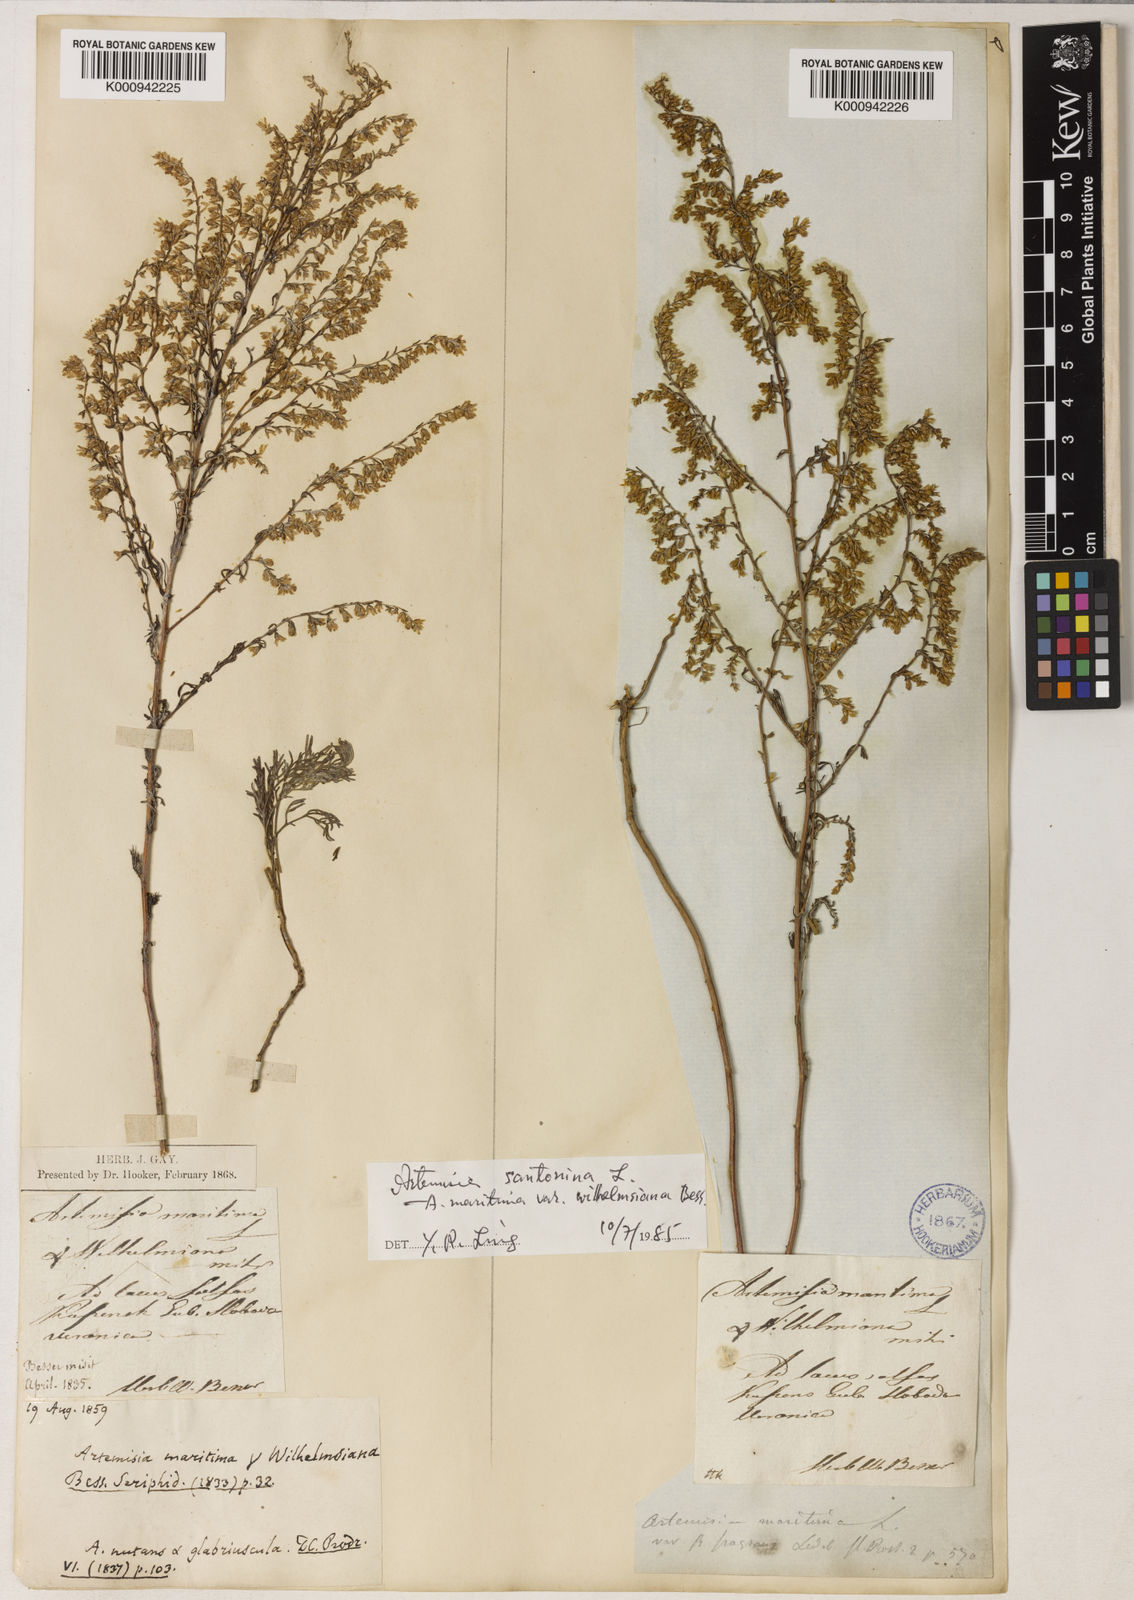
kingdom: Plantae
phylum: Tracheophyta
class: Magnoliopsida
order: Asterales
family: Asteraceae
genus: Seriphidium
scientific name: Seriphidium
